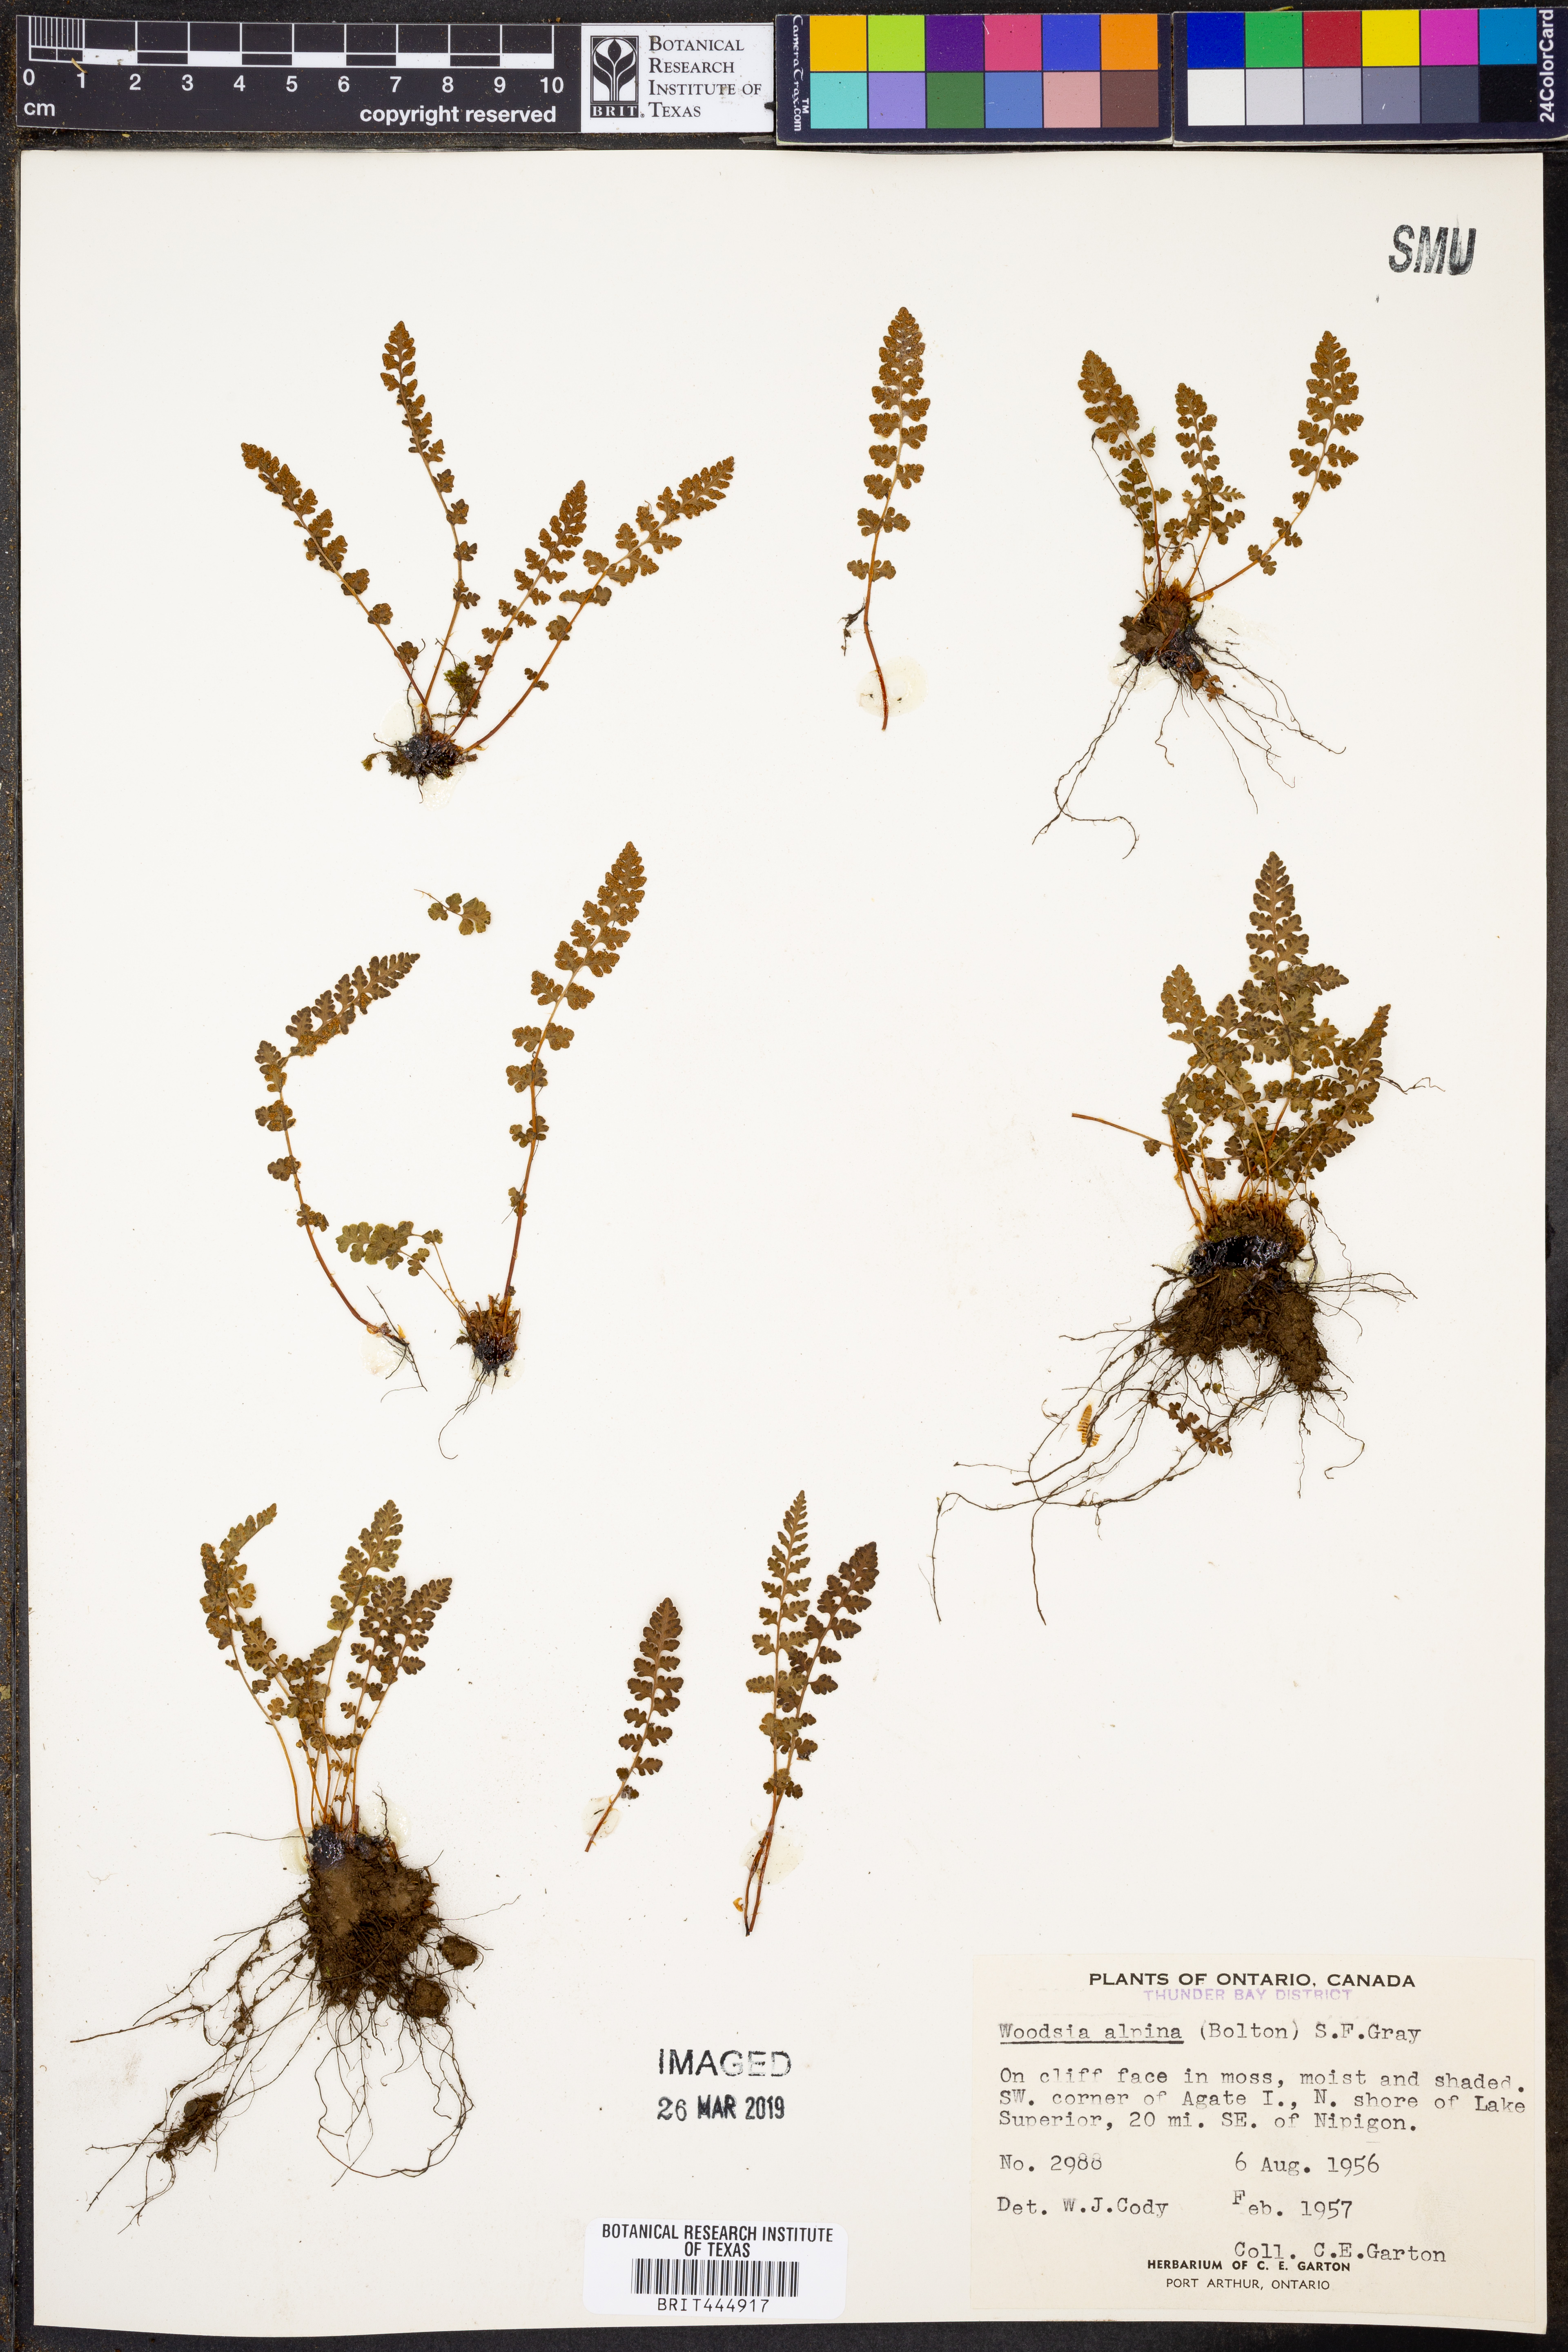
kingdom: Plantae
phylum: Tracheophyta
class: Polypodiopsida
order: Polypodiales
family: Woodsiaceae
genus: Woodsia
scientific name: Woodsia alpina
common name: Alpine woodsia
